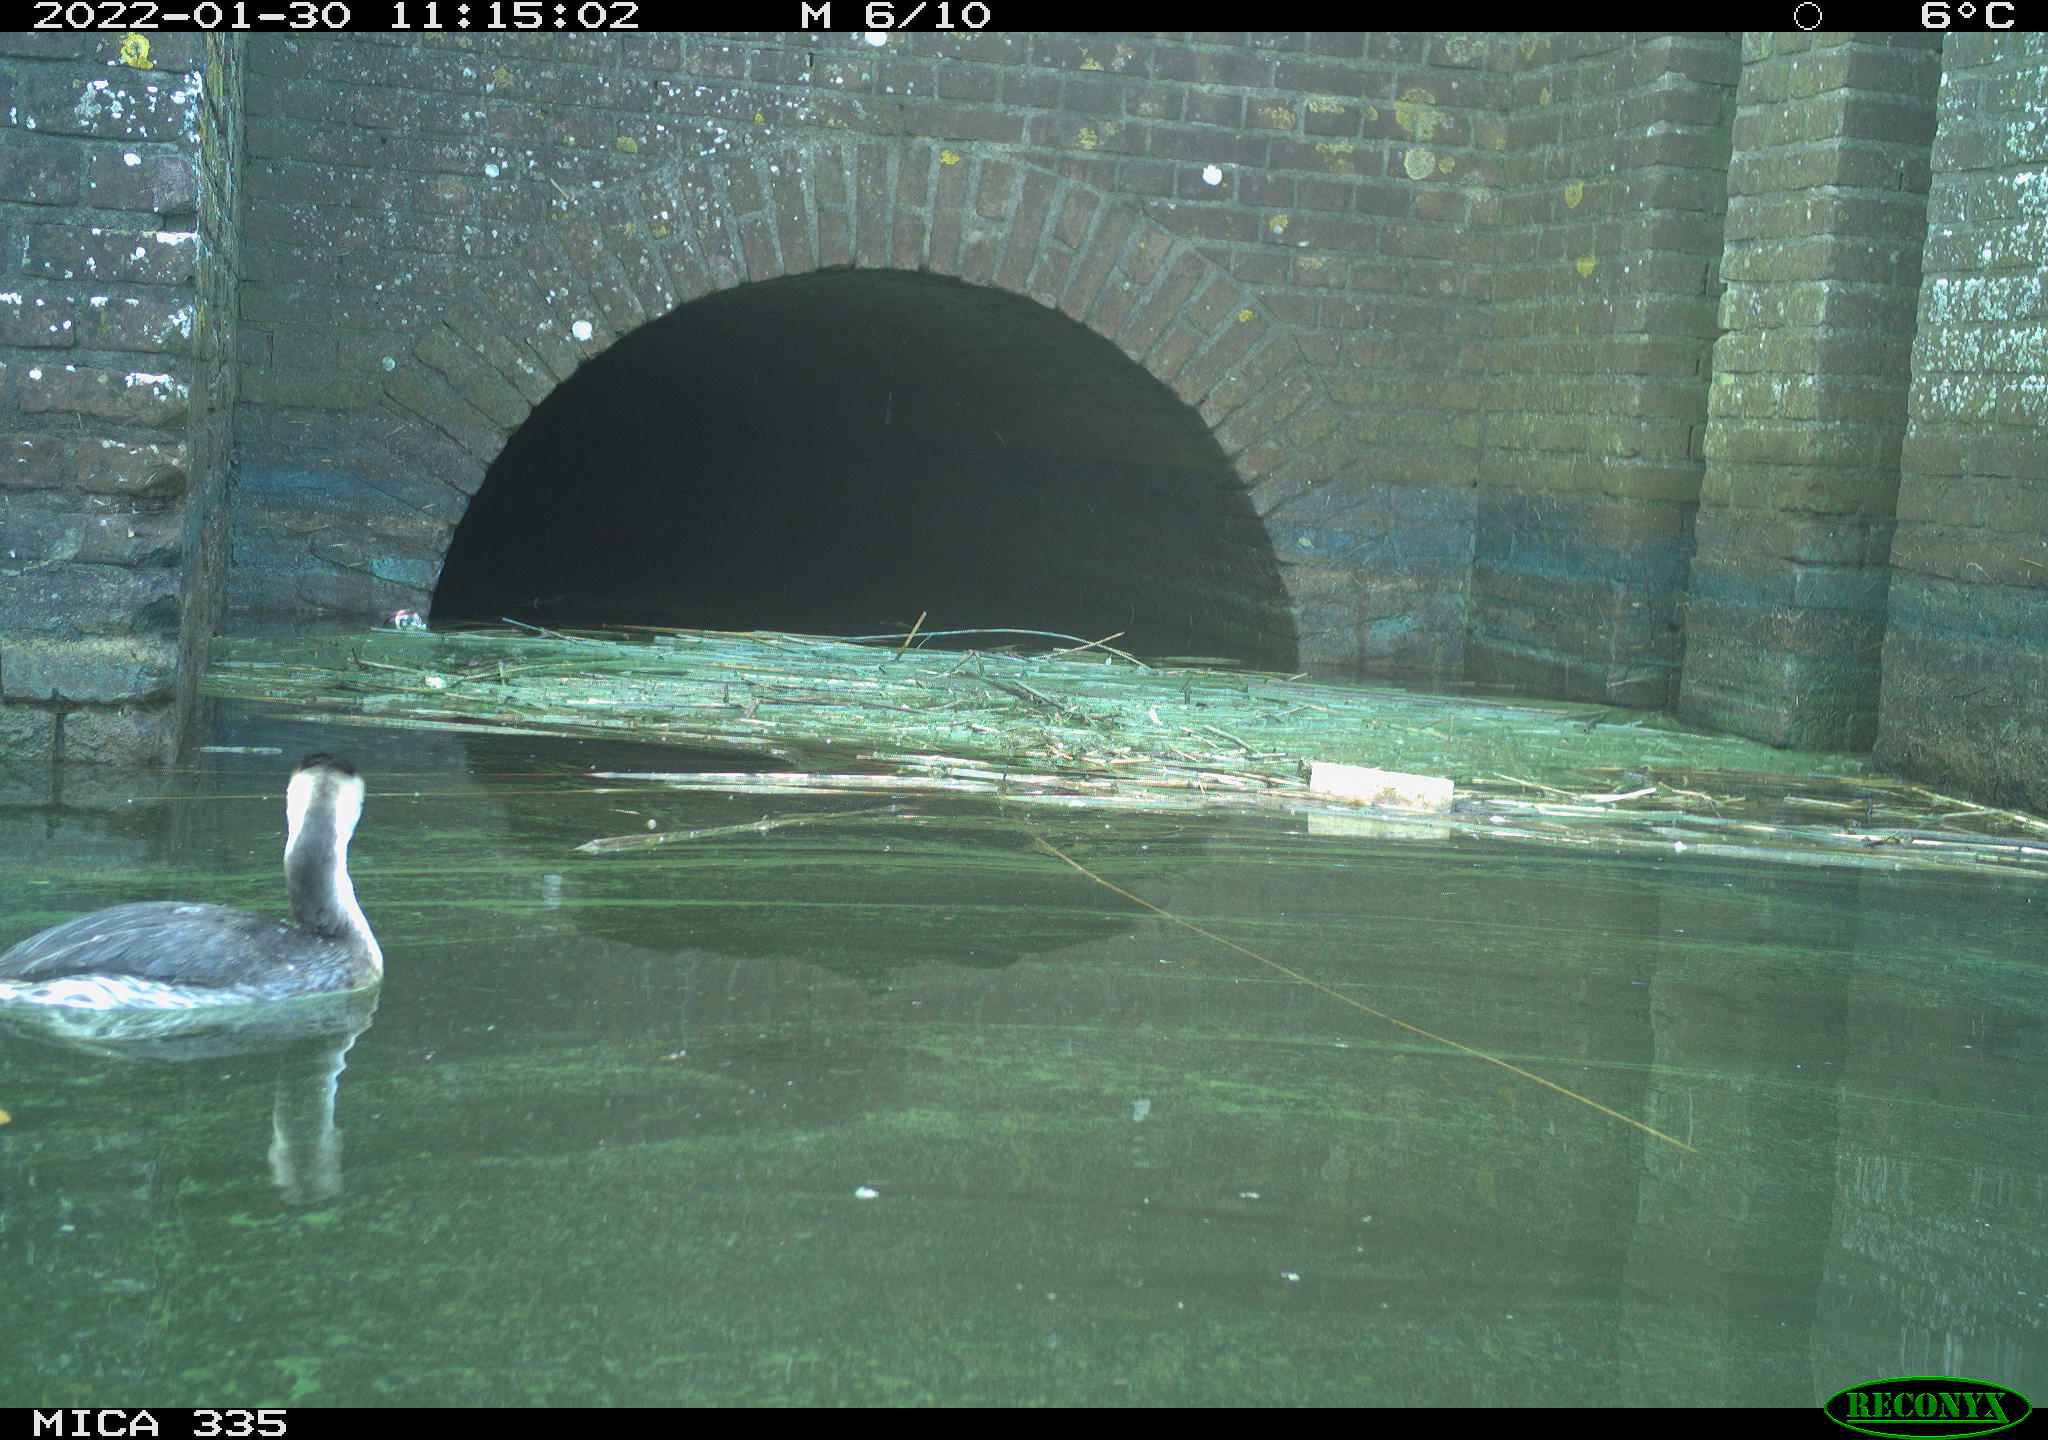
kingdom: Animalia
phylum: Chordata
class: Aves
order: Podicipediformes
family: Podicipedidae
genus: Podiceps
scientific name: Podiceps cristatus
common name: Great crested grebe
